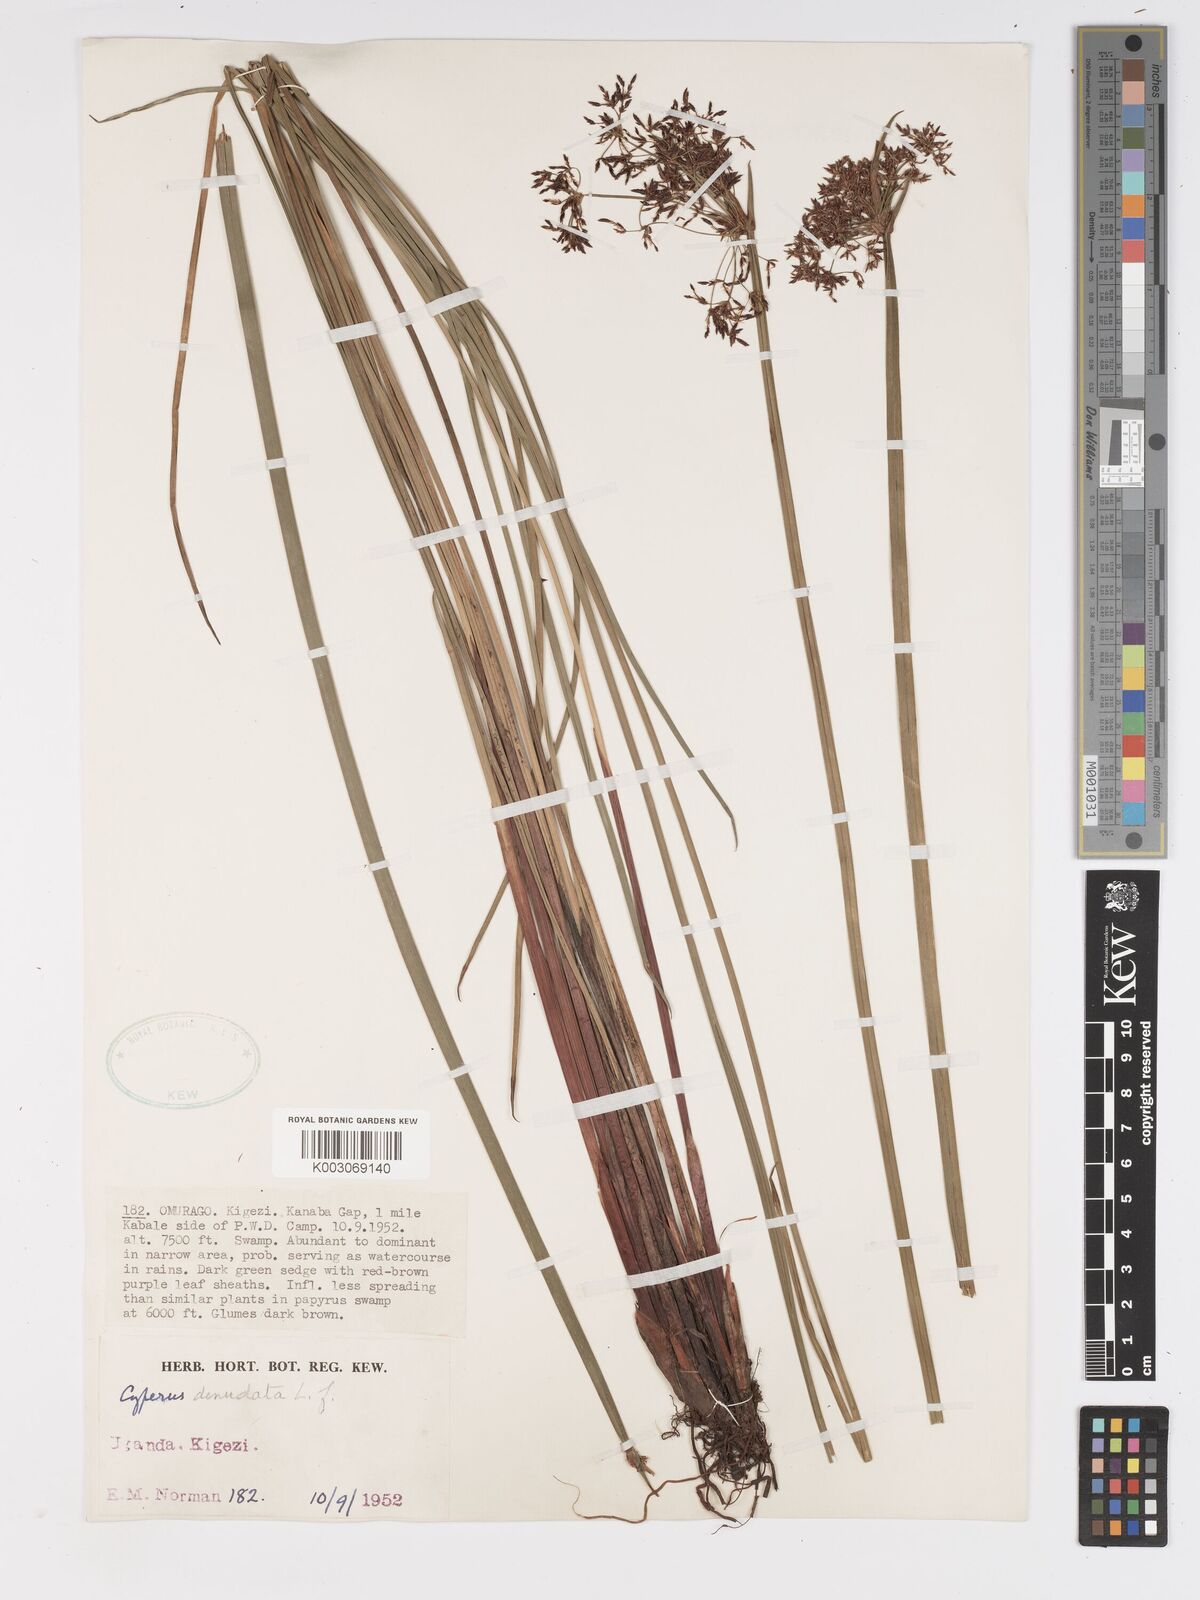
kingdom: Plantae
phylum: Tracheophyta
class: Liliopsida
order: Poales
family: Cyperaceae
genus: Cyperus
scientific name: Cyperus denudatus
